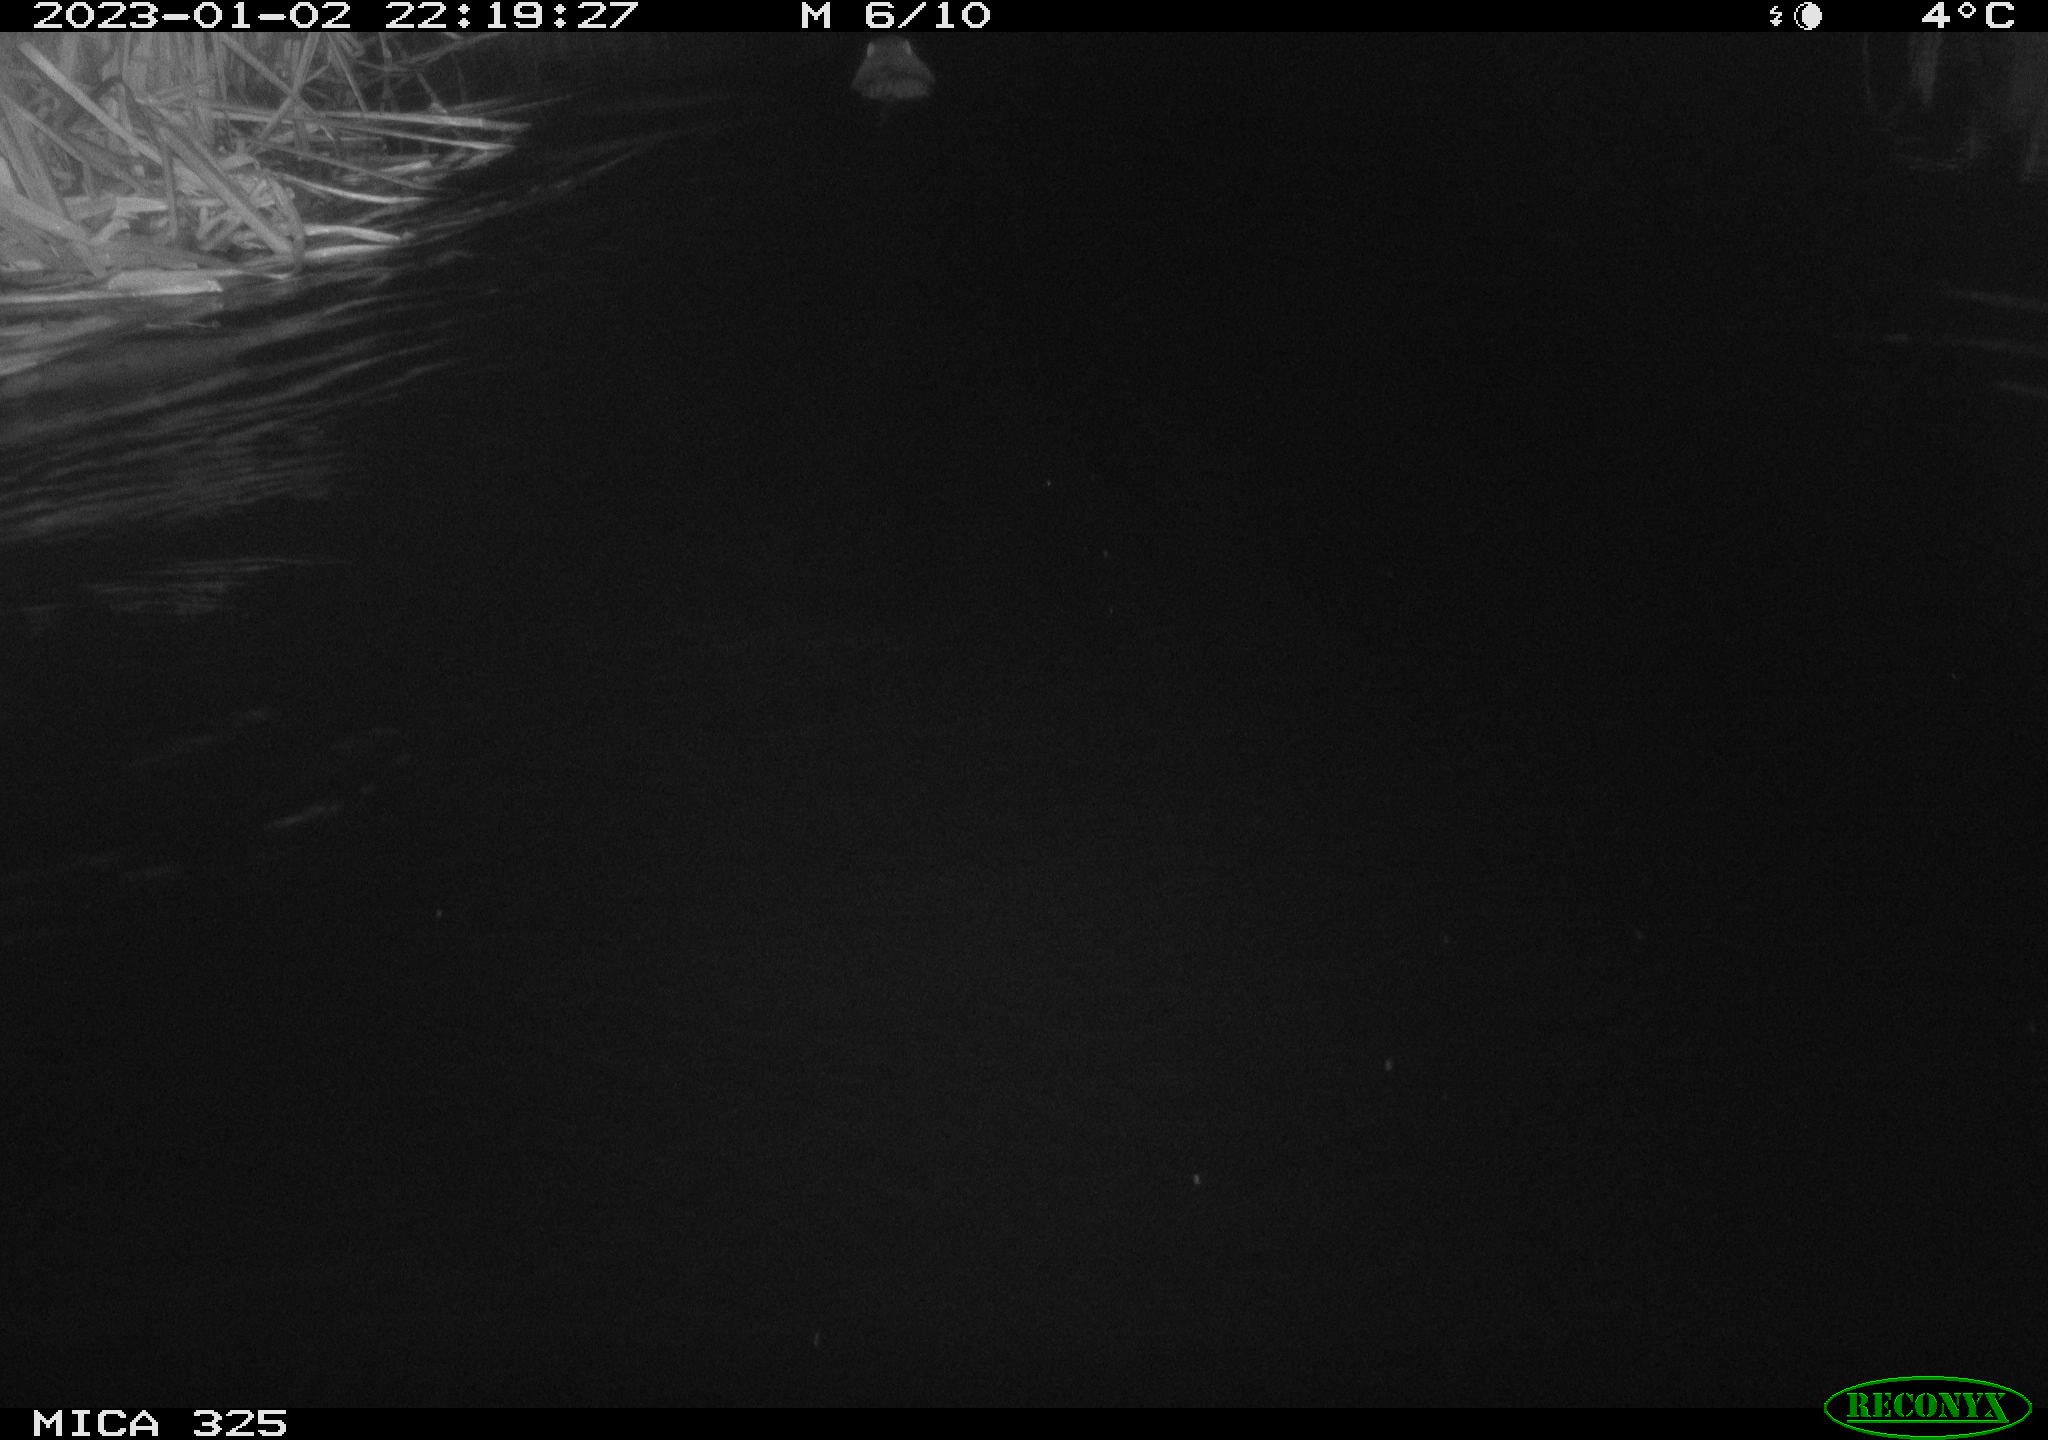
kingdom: Animalia
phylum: Chordata
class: Mammalia
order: Rodentia
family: Myocastoridae
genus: Myocastor
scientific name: Myocastor coypus
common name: Coypu
